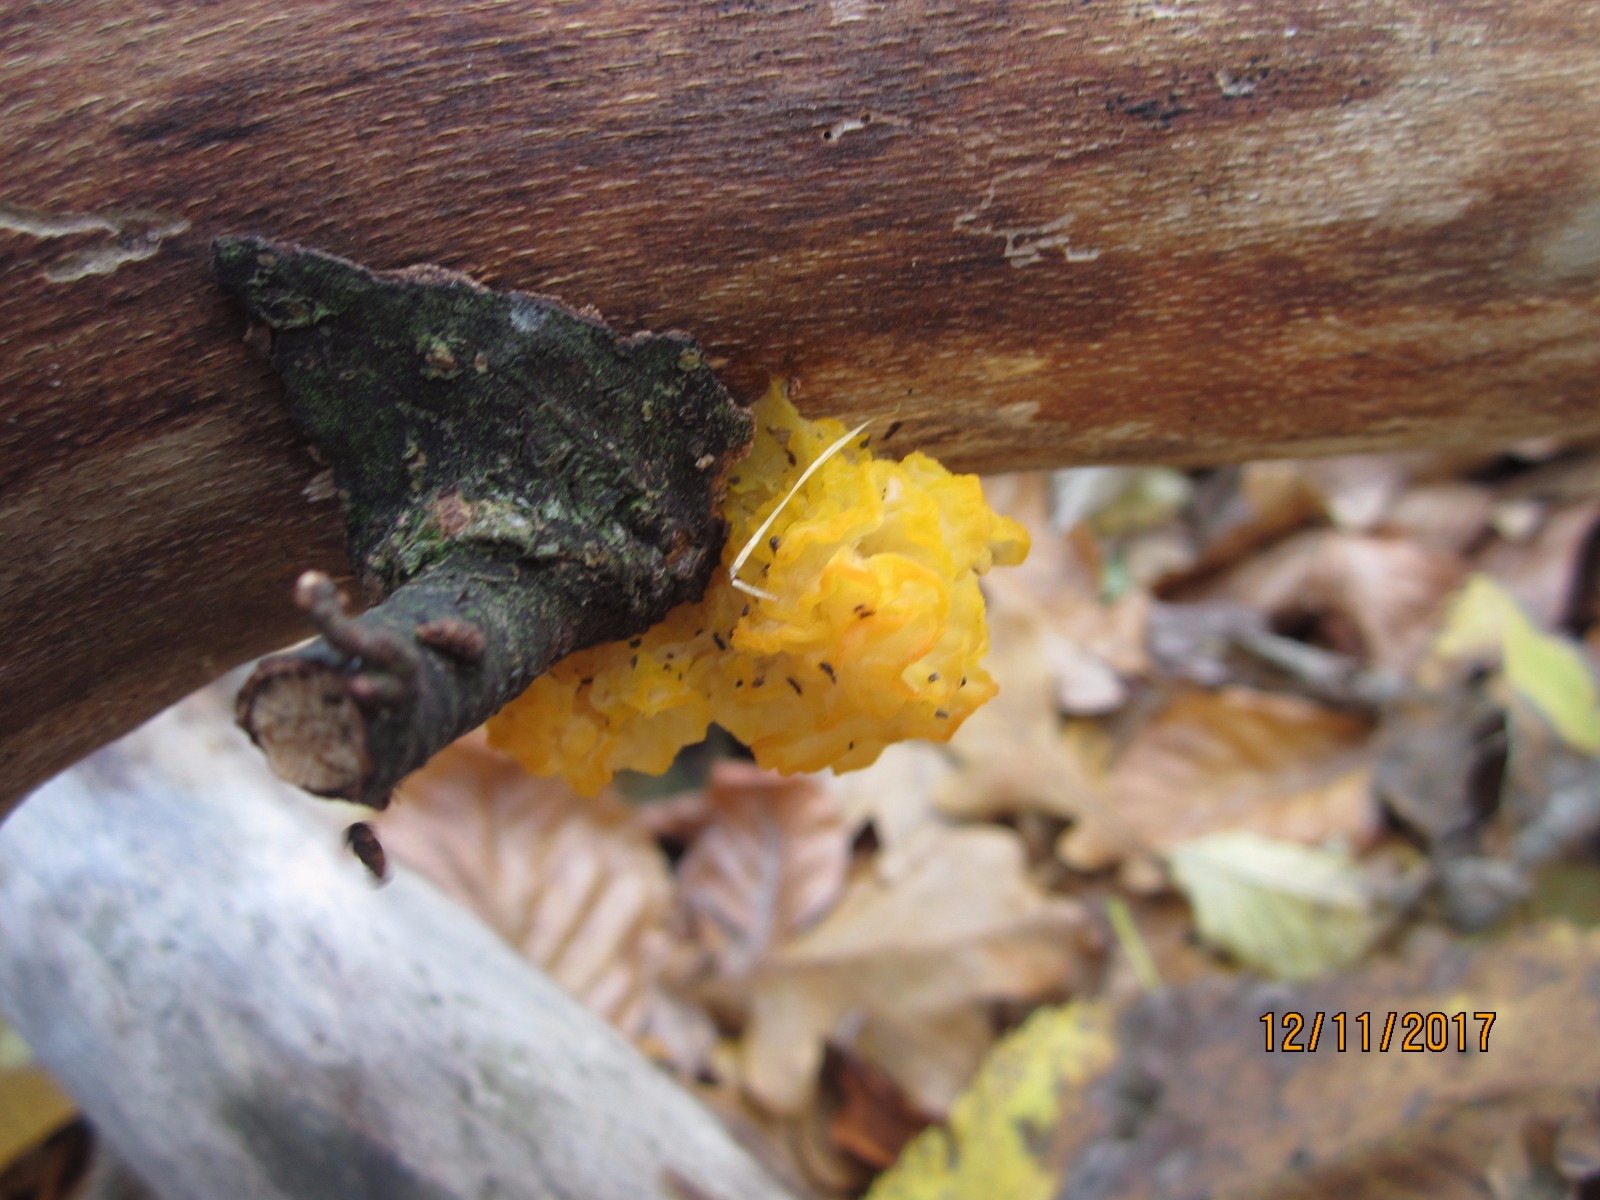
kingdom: Fungi
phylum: Basidiomycota
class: Tremellomycetes
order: Tremellales
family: Tremellaceae
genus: Tremella
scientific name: Tremella mesenterica
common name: gul bævresvamp
